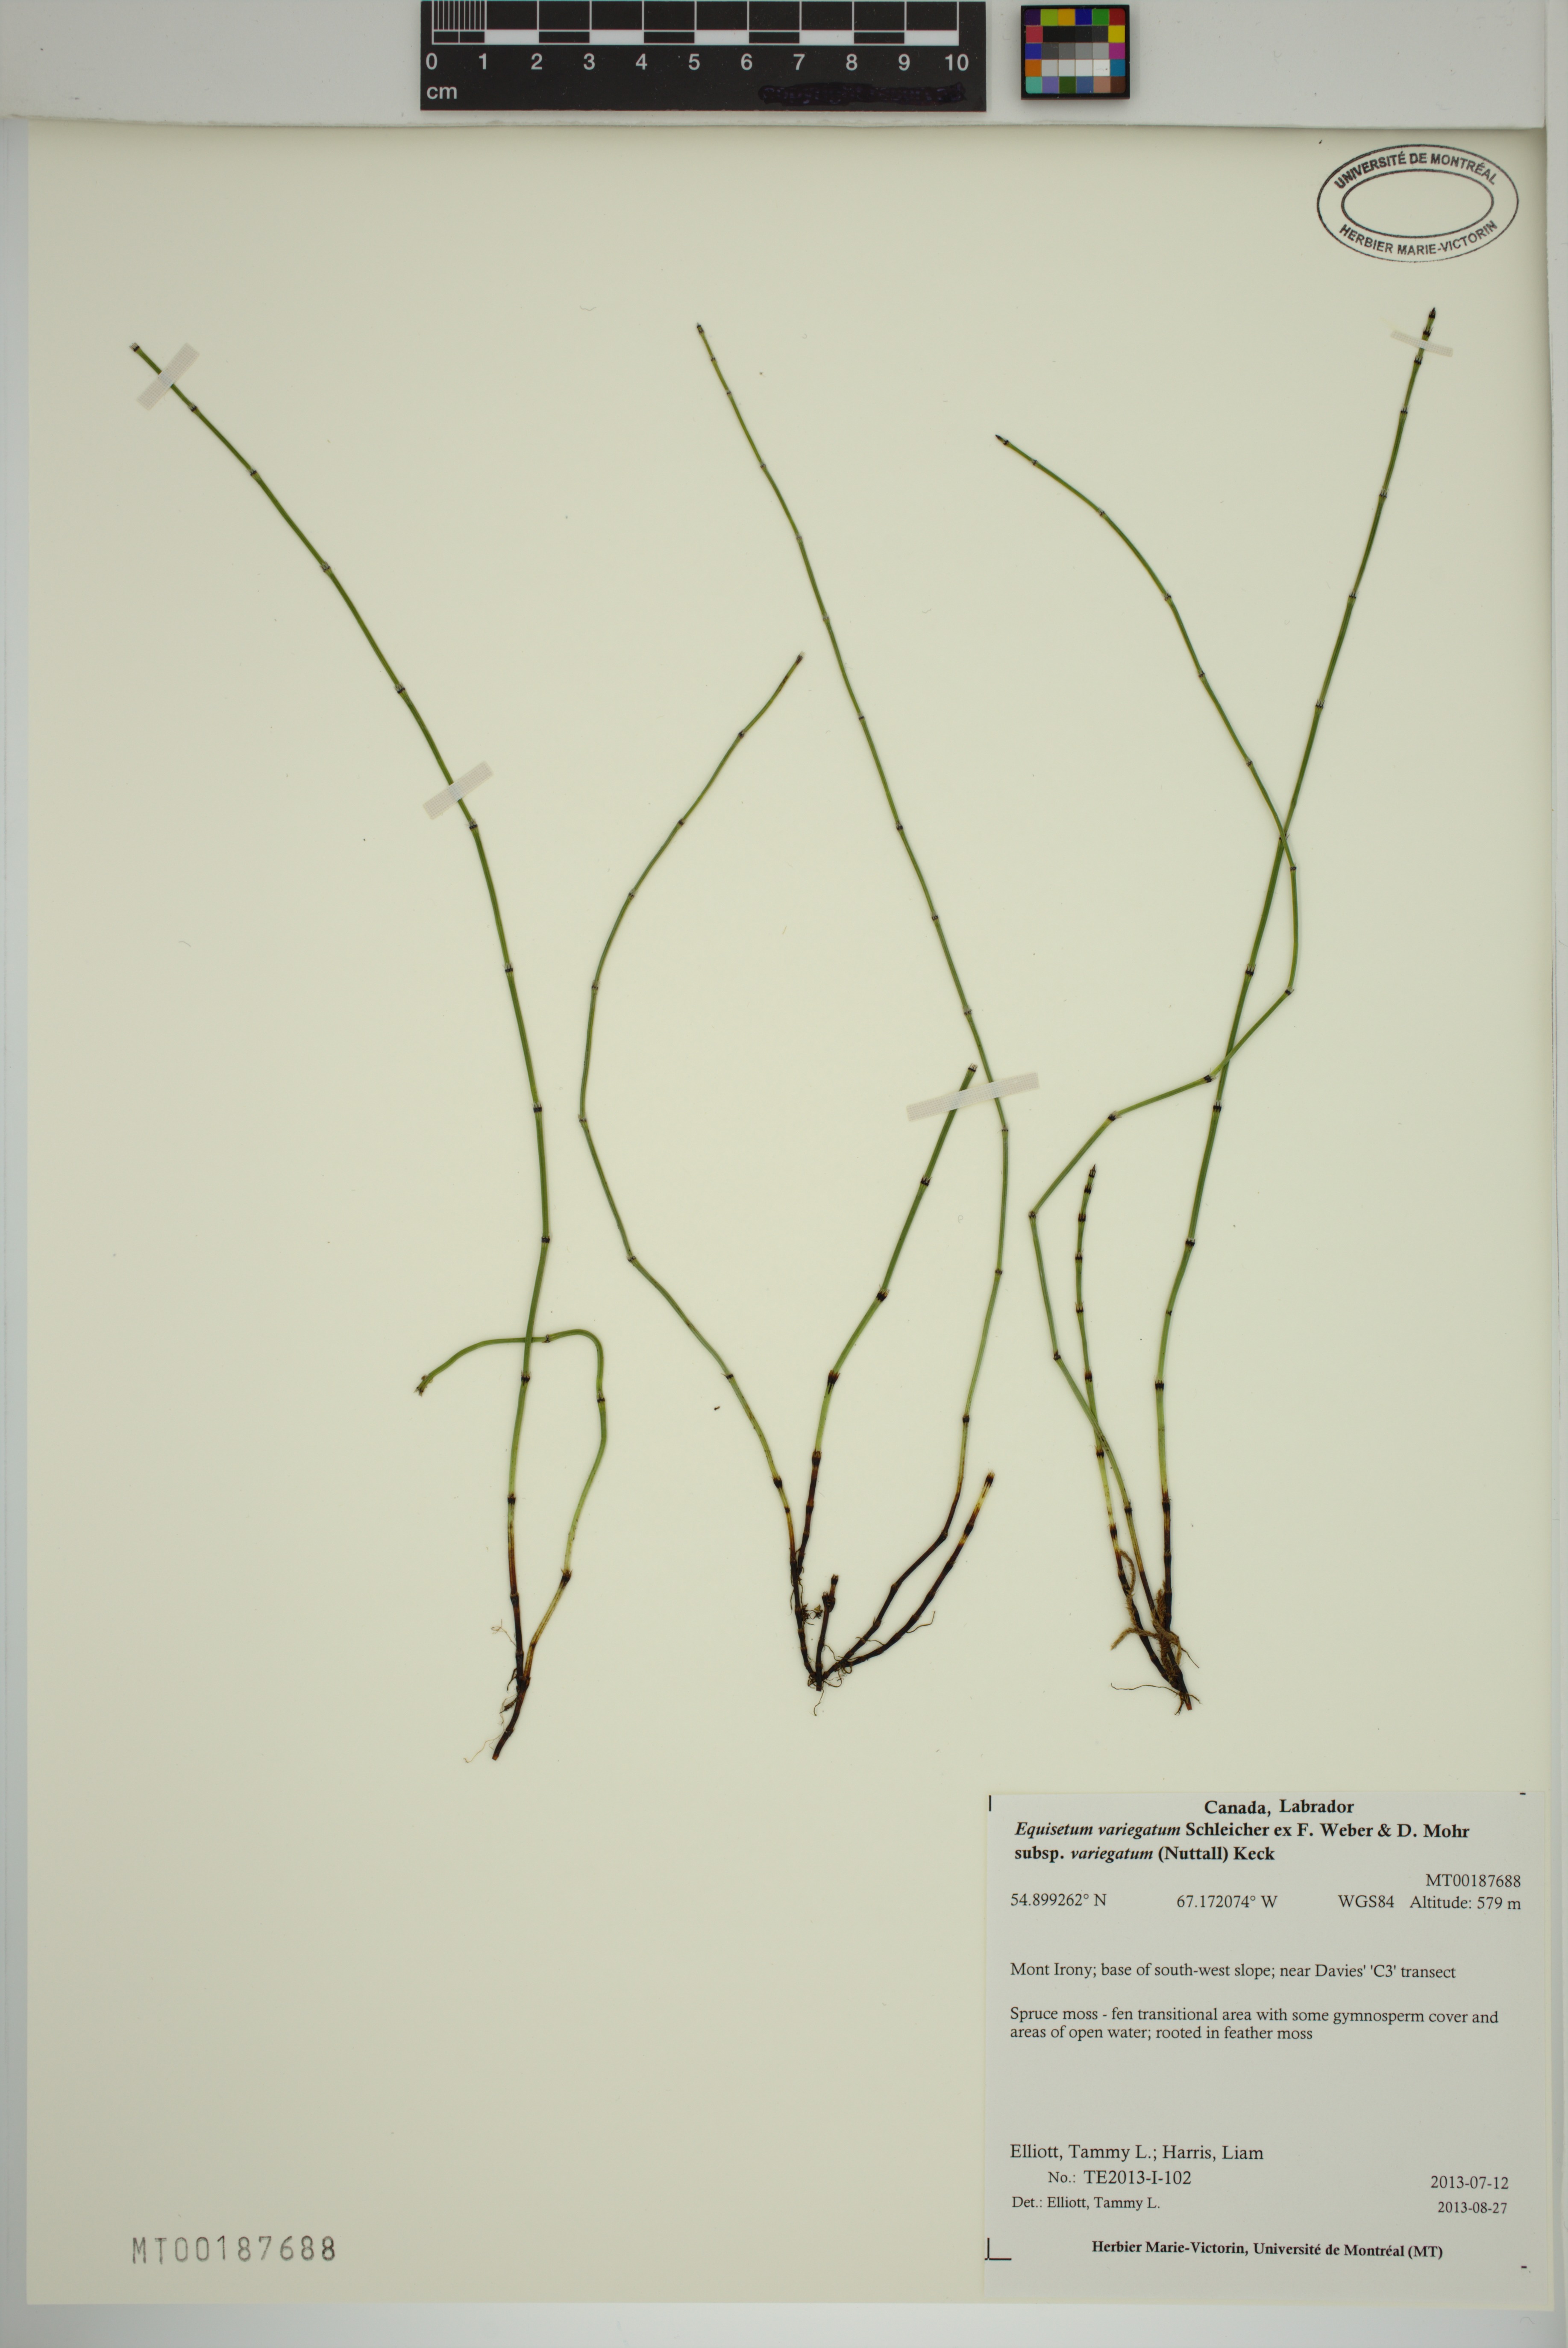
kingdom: Plantae
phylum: Tracheophyta
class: Polypodiopsida
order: Equisetales
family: Equisetaceae
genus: Equisetum
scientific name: Equisetum variegatum
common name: Variegated horsetail
